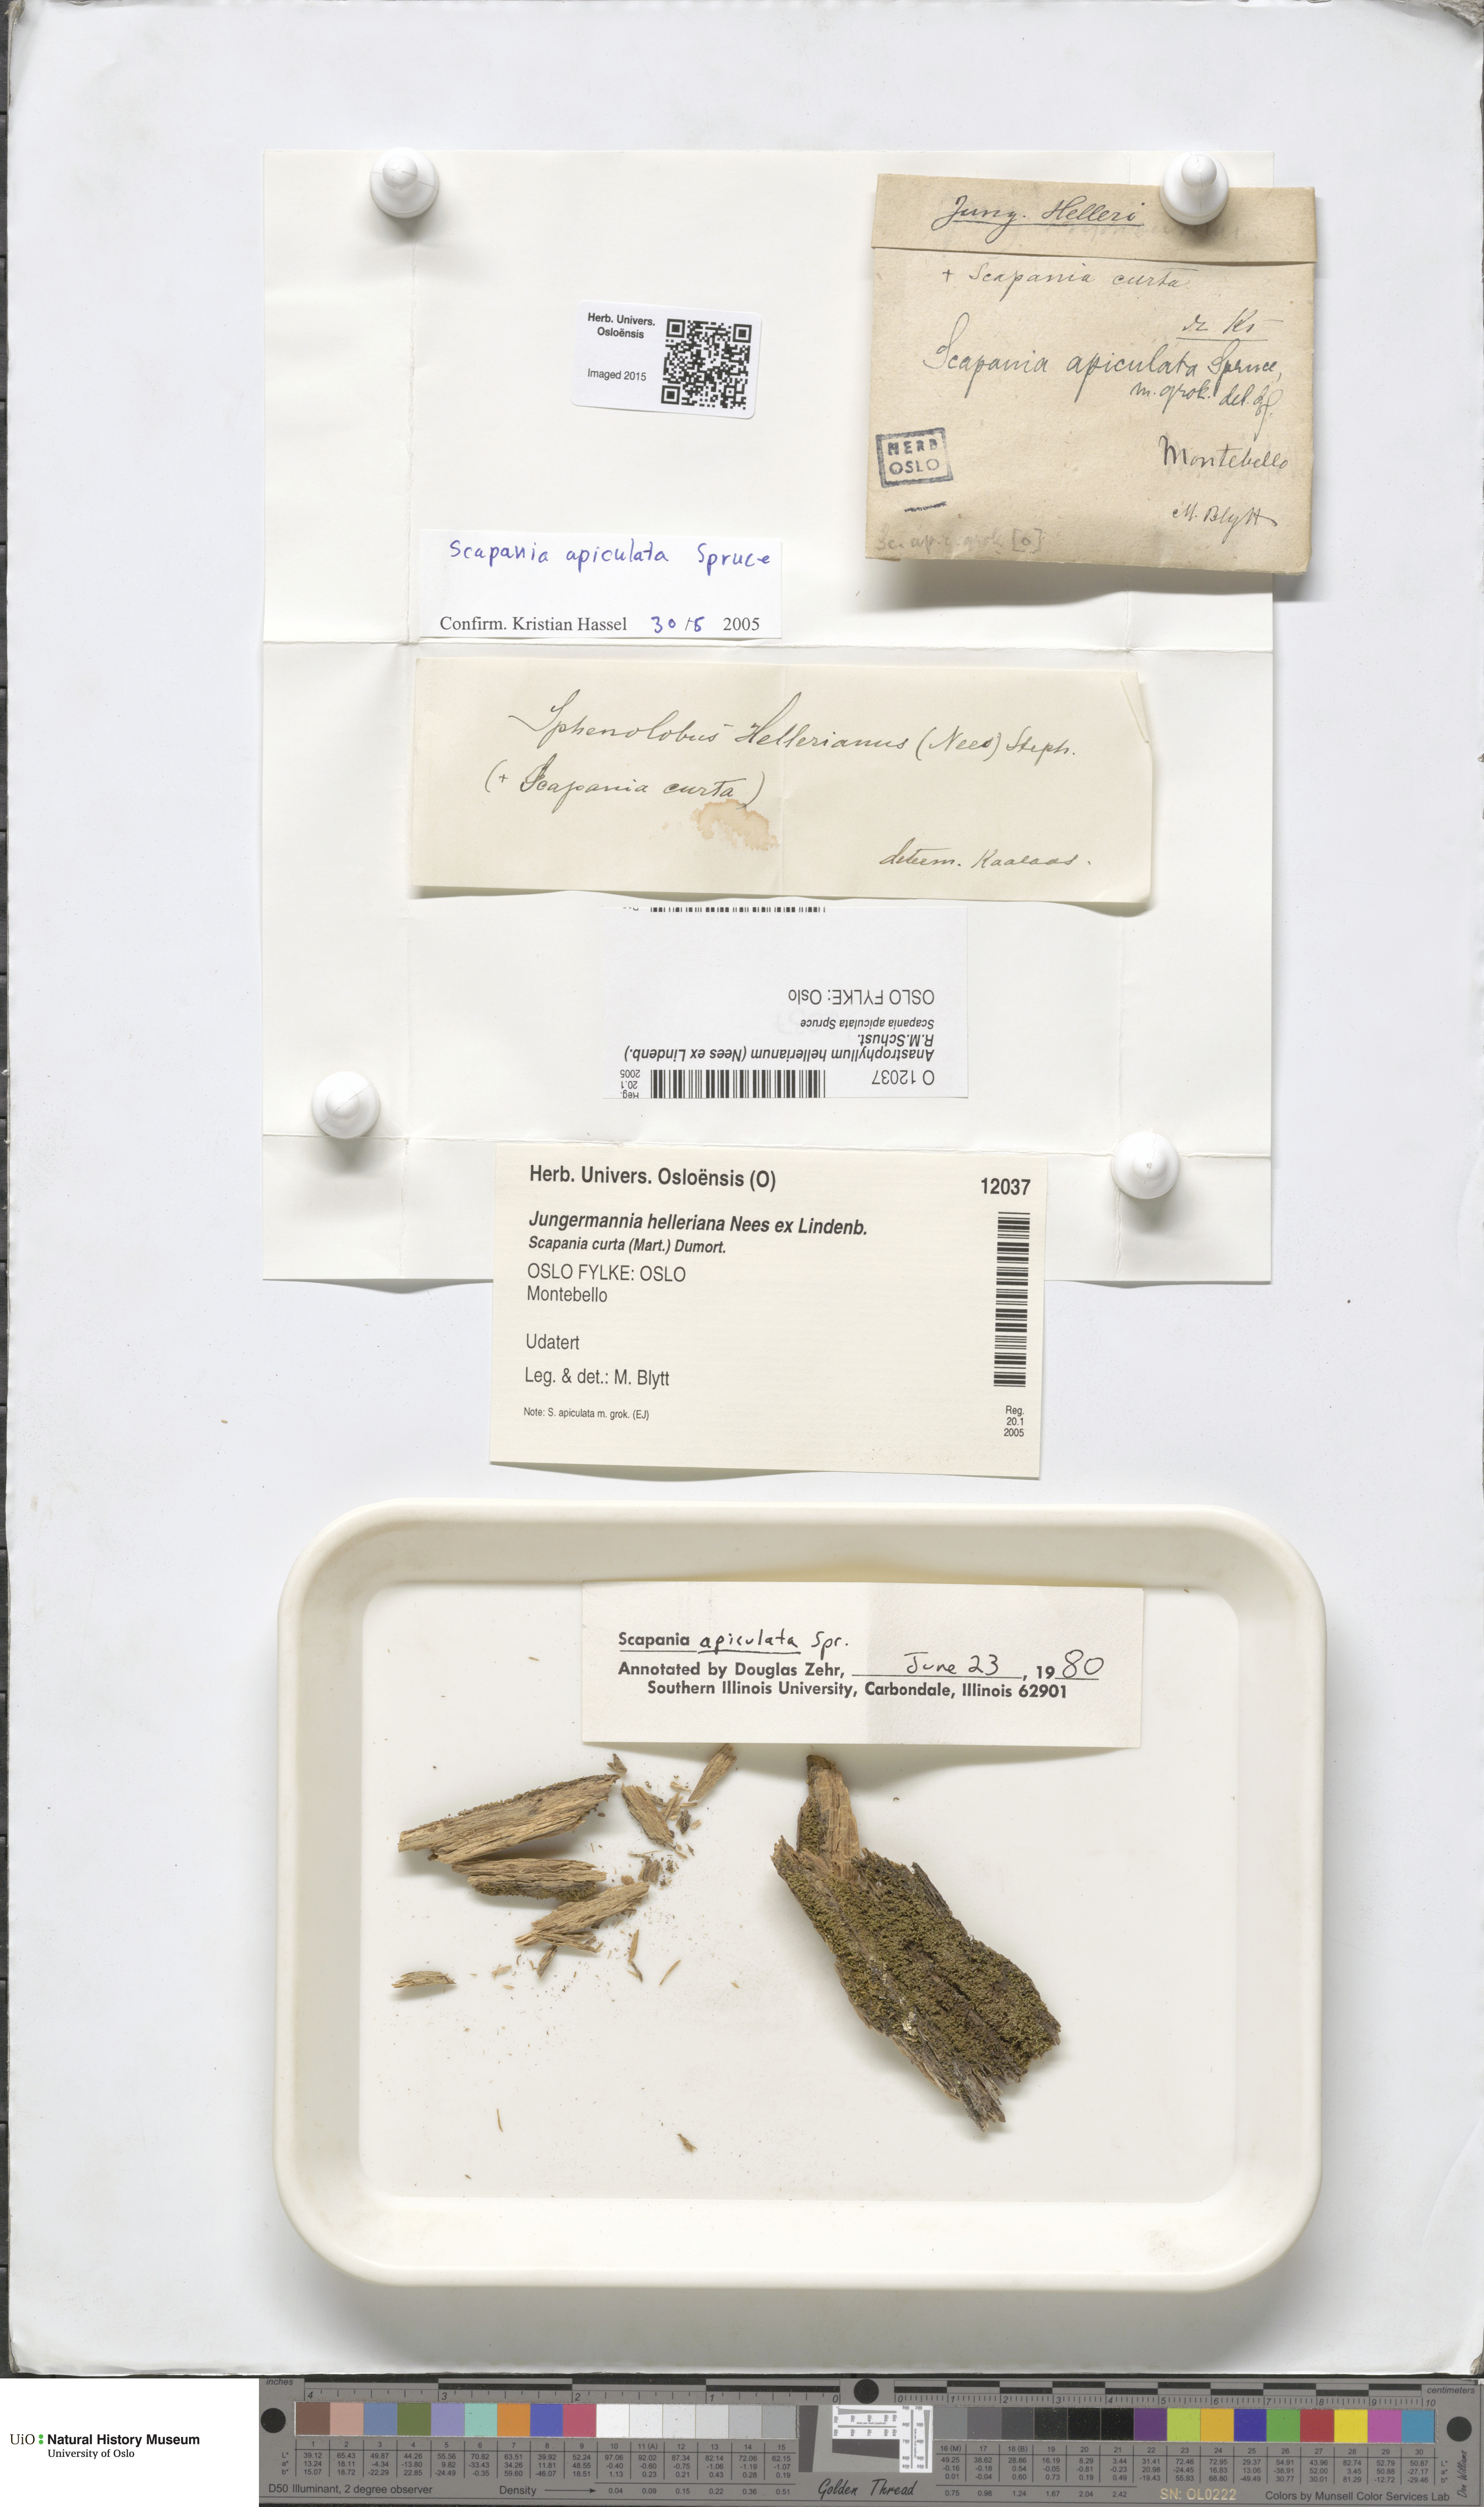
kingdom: Plantae
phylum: Marchantiophyta
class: Jungermanniopsida
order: Jungermanniales
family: Anastrophyllaceae
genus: Crossocalyx
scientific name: Crossocalyx hellerianus
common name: Heller's notchwort
